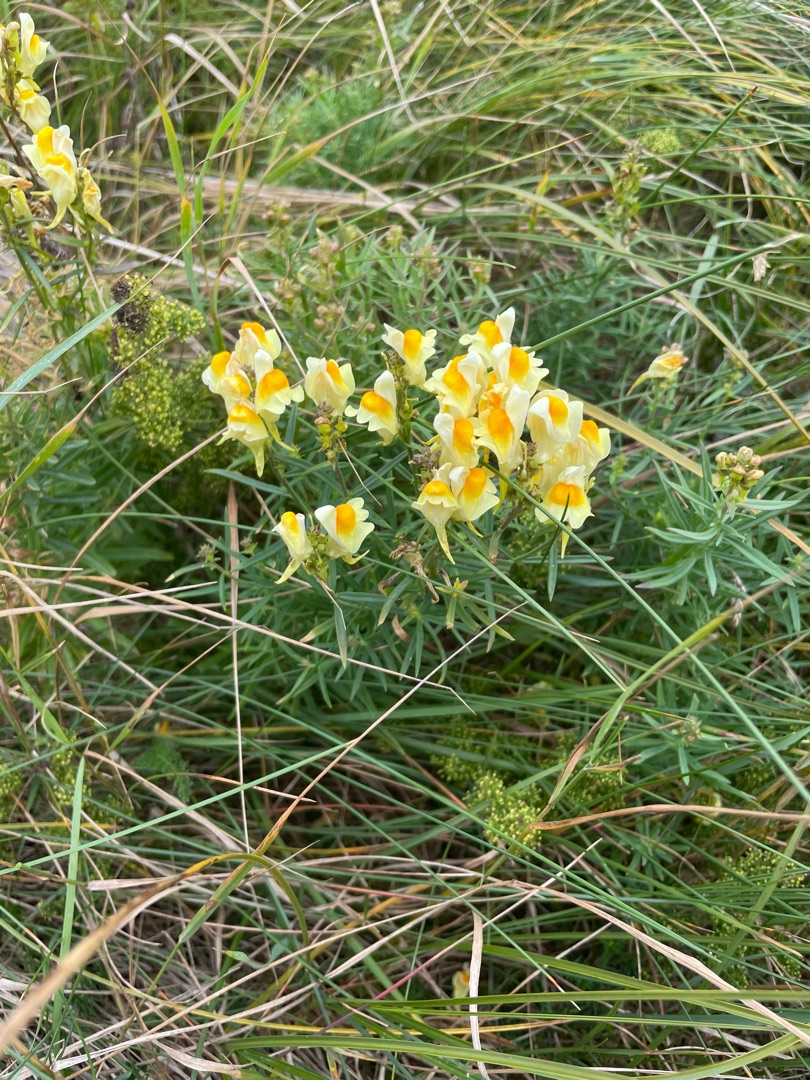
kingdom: Plantae
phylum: Tracheophyta
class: Magnoliopsida
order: Lamiales
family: Plantaginaceae
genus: Linaria
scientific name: Linaria vulgaris
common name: Almindelig torskemund
